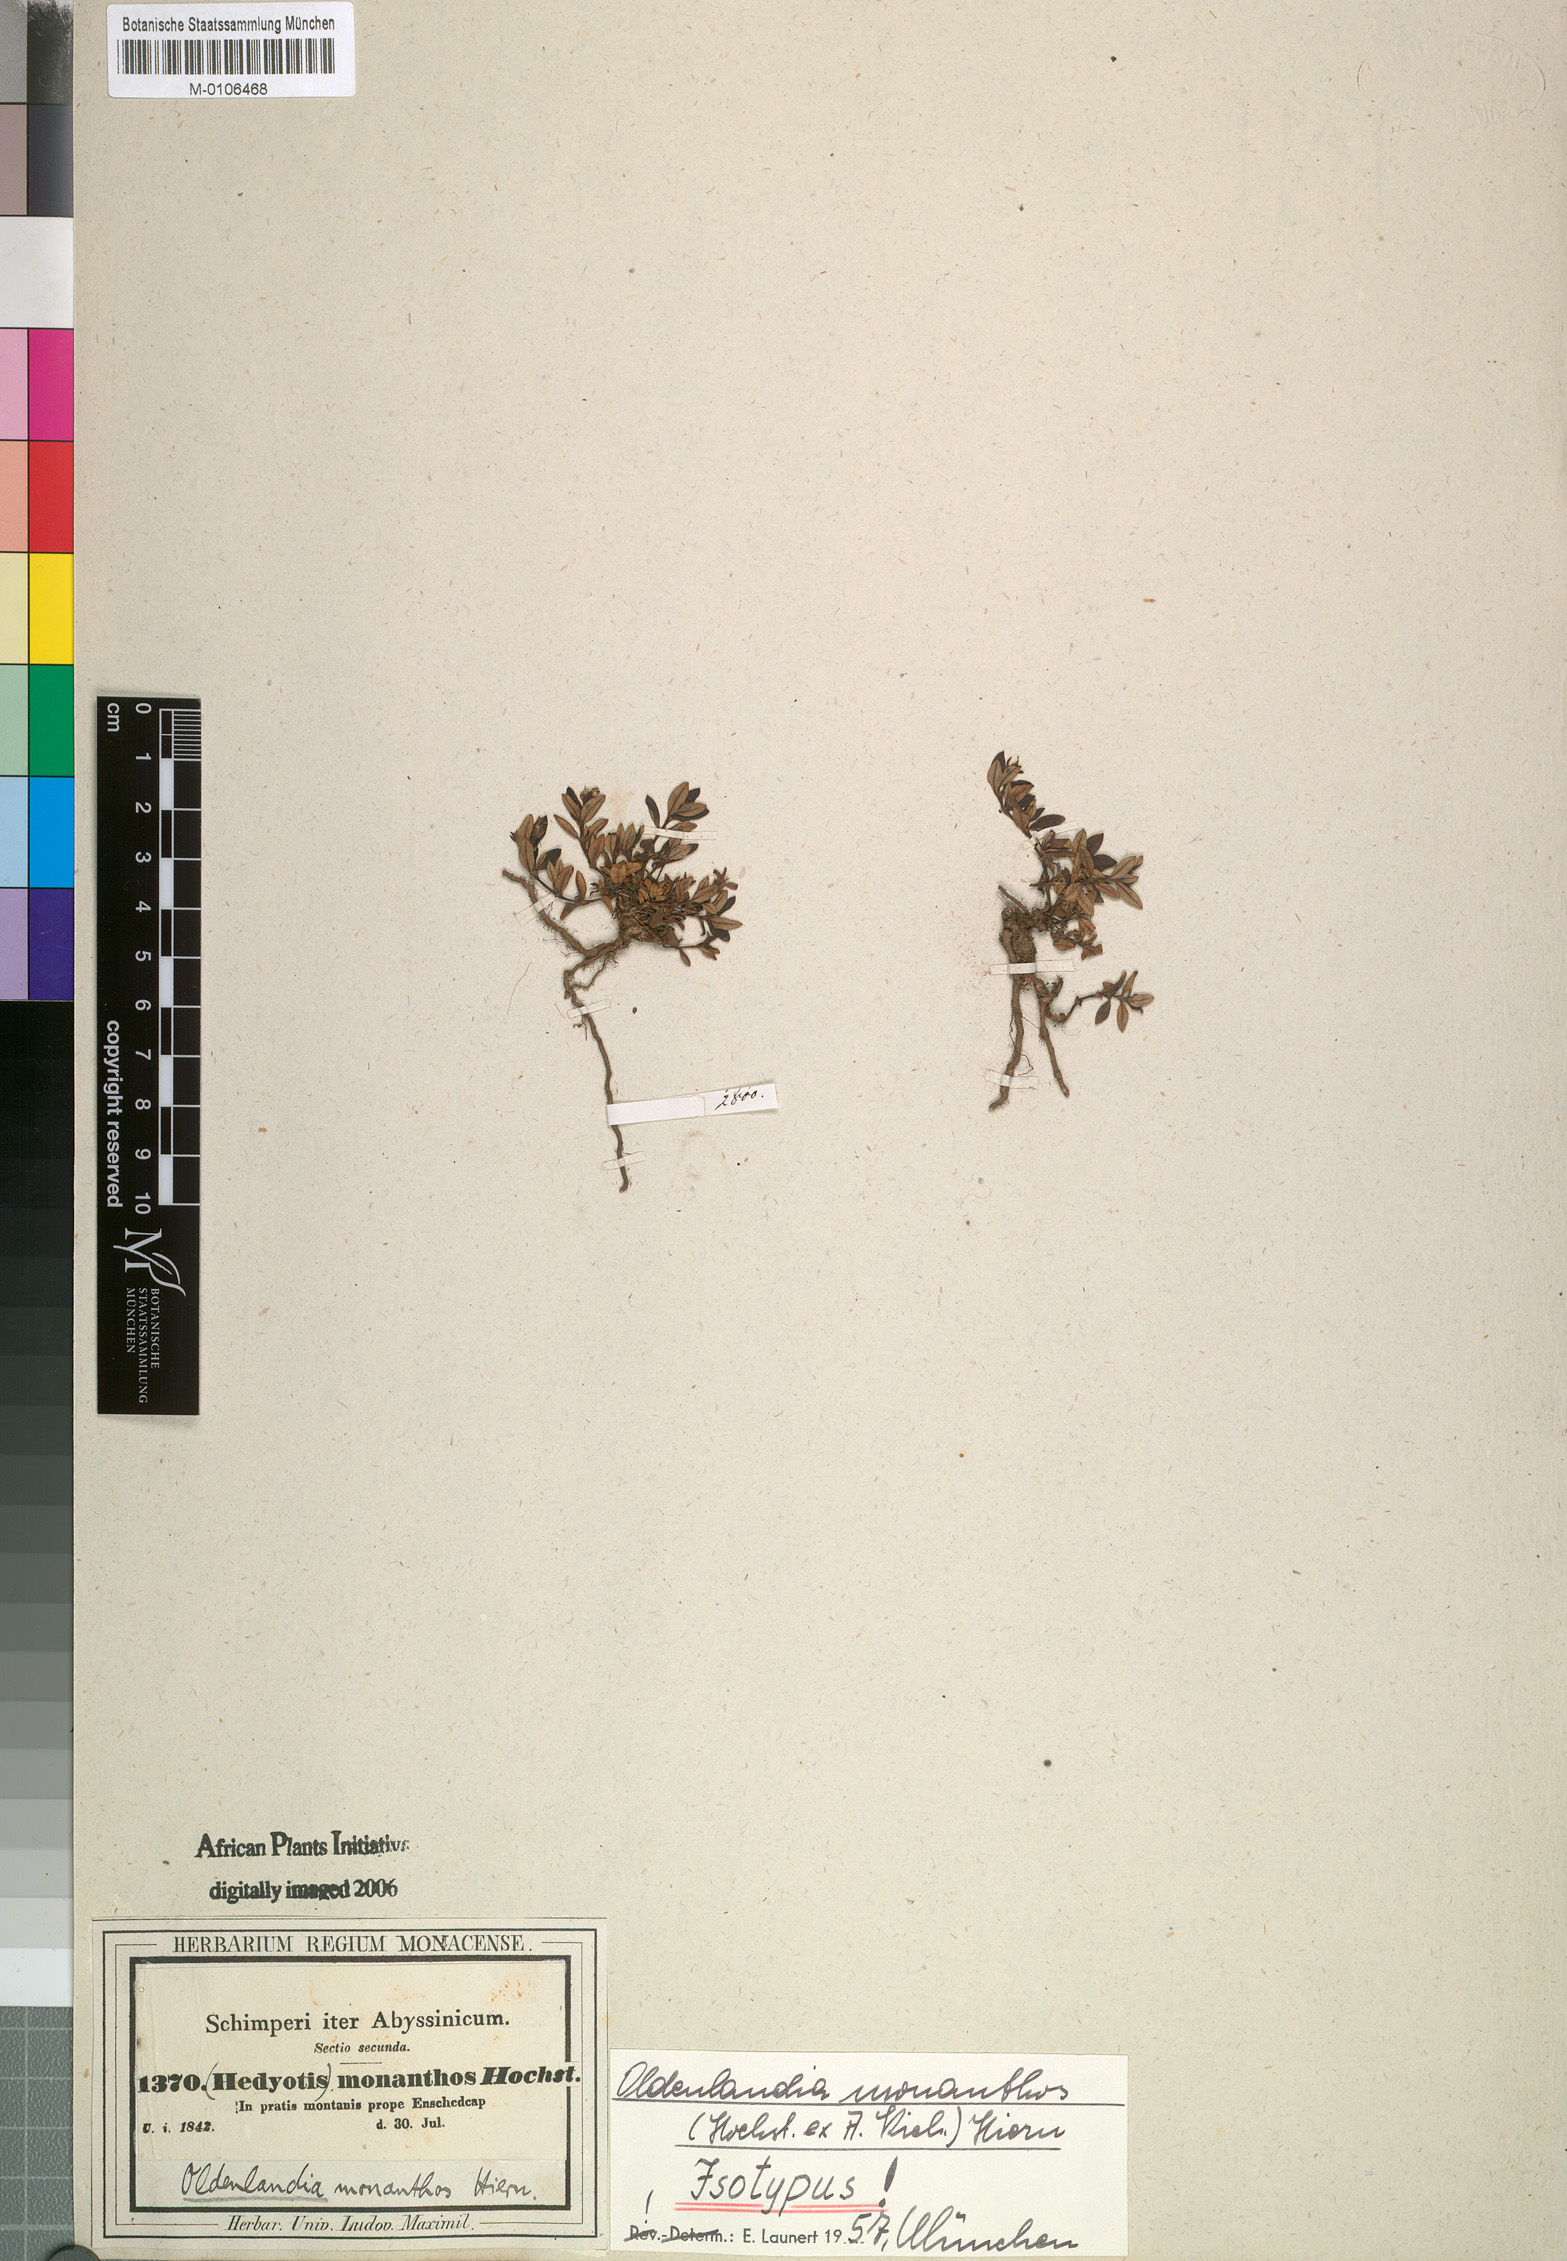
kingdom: Plantae
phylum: Tracheophyta
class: Magnoliopsida
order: Gentianales
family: Rubiaceae
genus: Oldenlandia
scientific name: Oldenlandia monanthos
